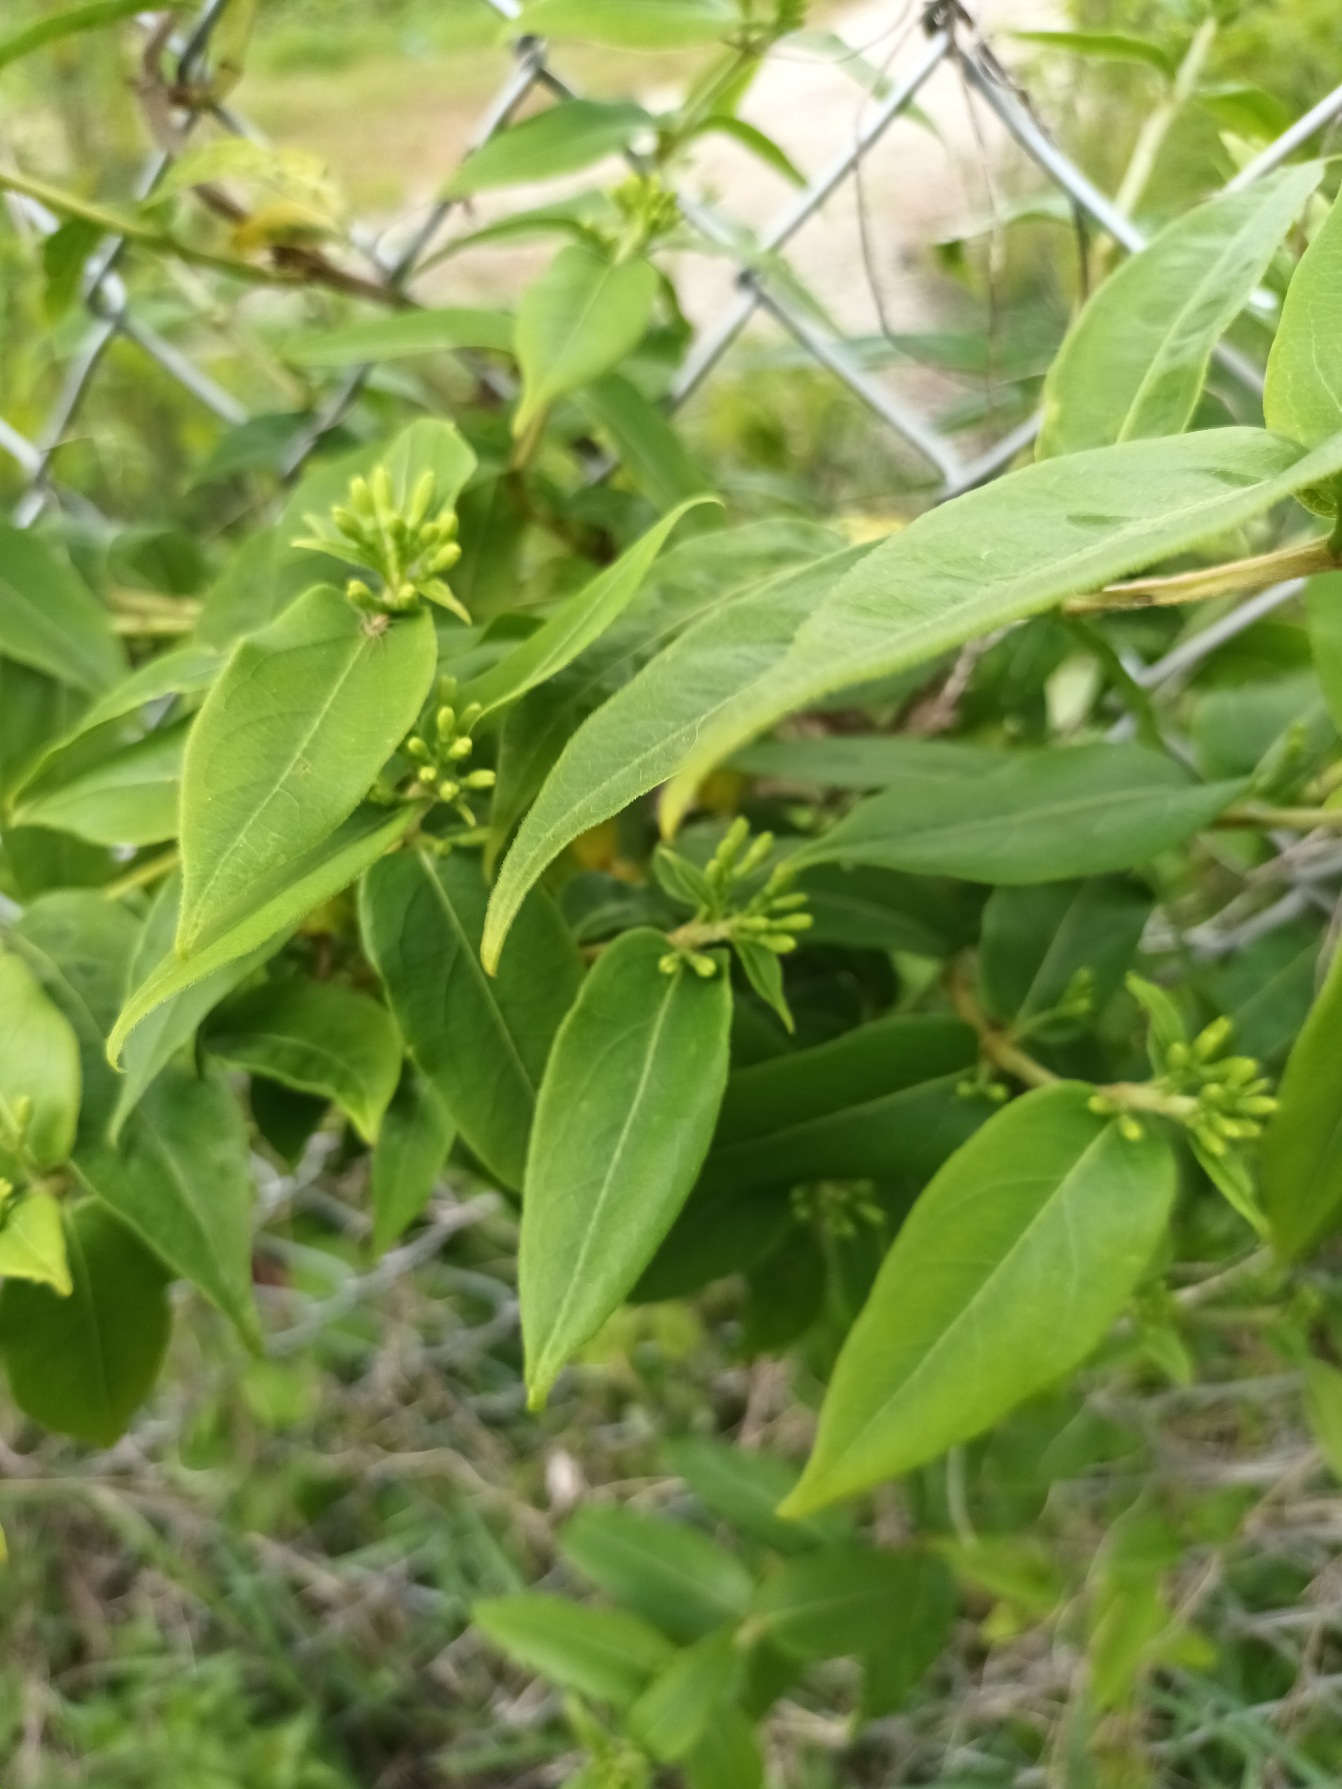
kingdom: Plantae
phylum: Tracheophyta
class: Magnoliopsida
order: Dipsacales
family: Caprifoliaceae
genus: Lonicera
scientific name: Lonicera acuminata
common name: Henrys gedeblad
